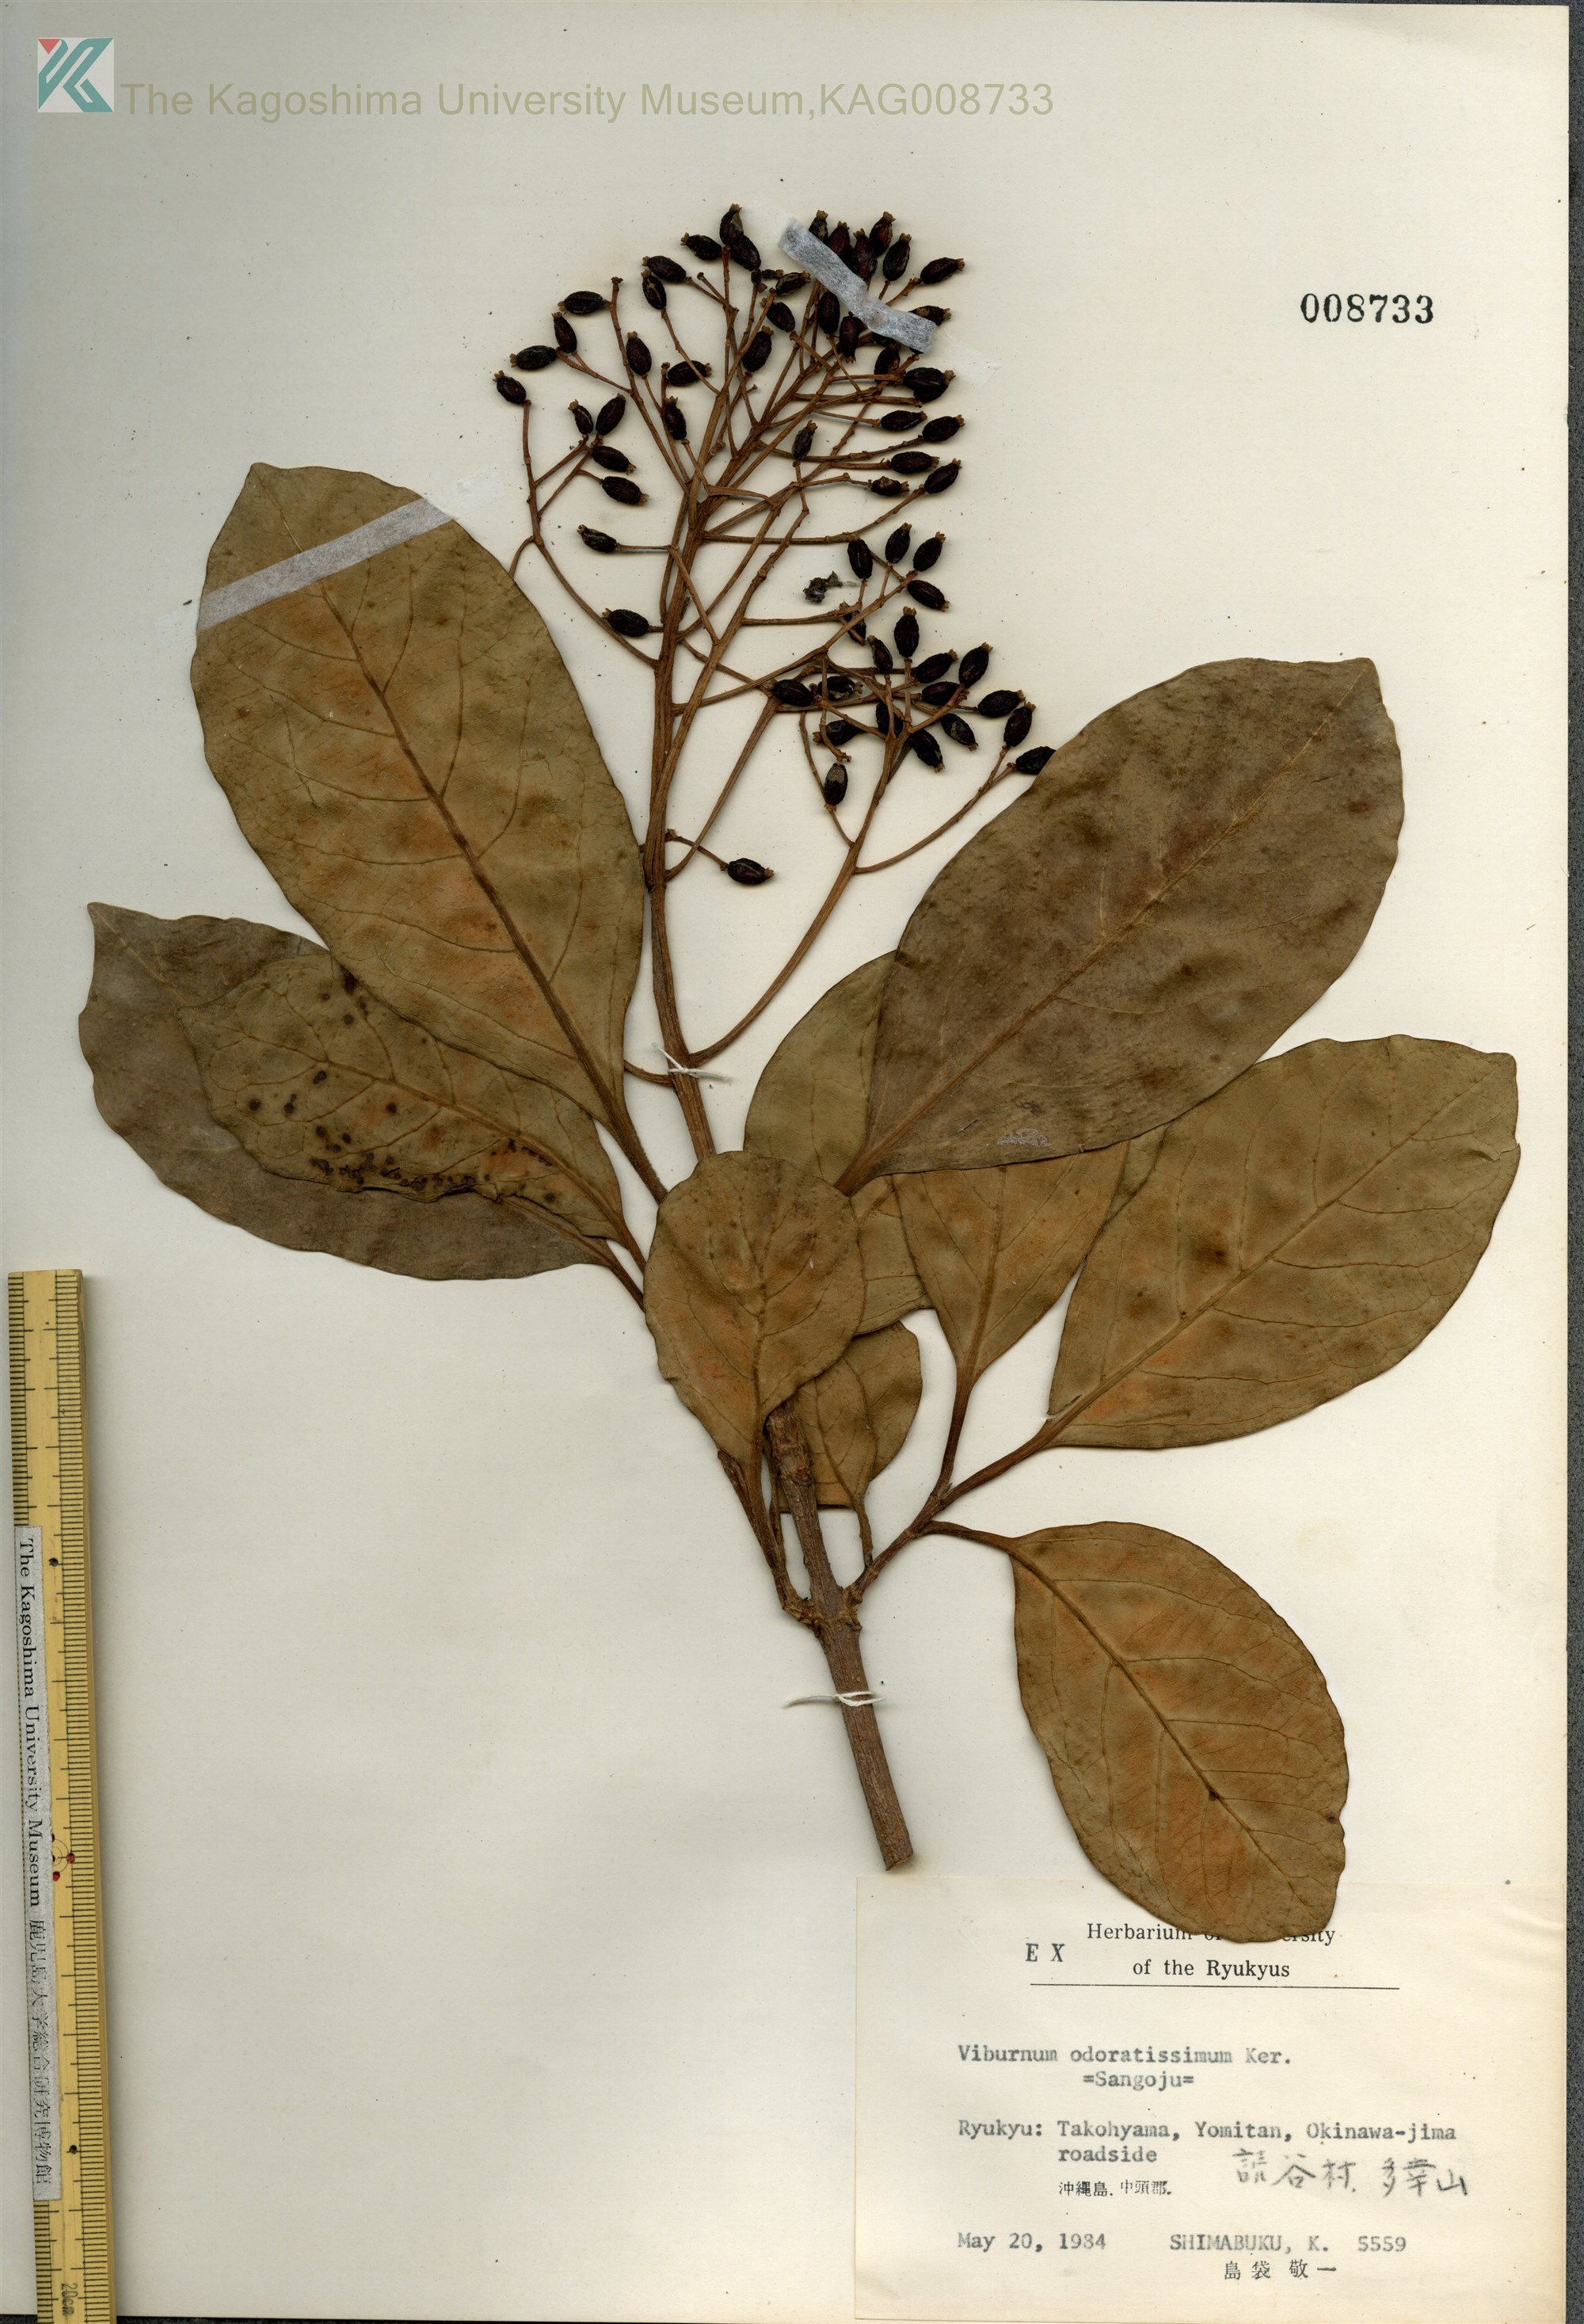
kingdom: Plantae
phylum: Tracheophyta
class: Magnoliopsida
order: Dipsacales
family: Viburnaceae
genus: Viburnum
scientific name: Viburnum odoratissimum
